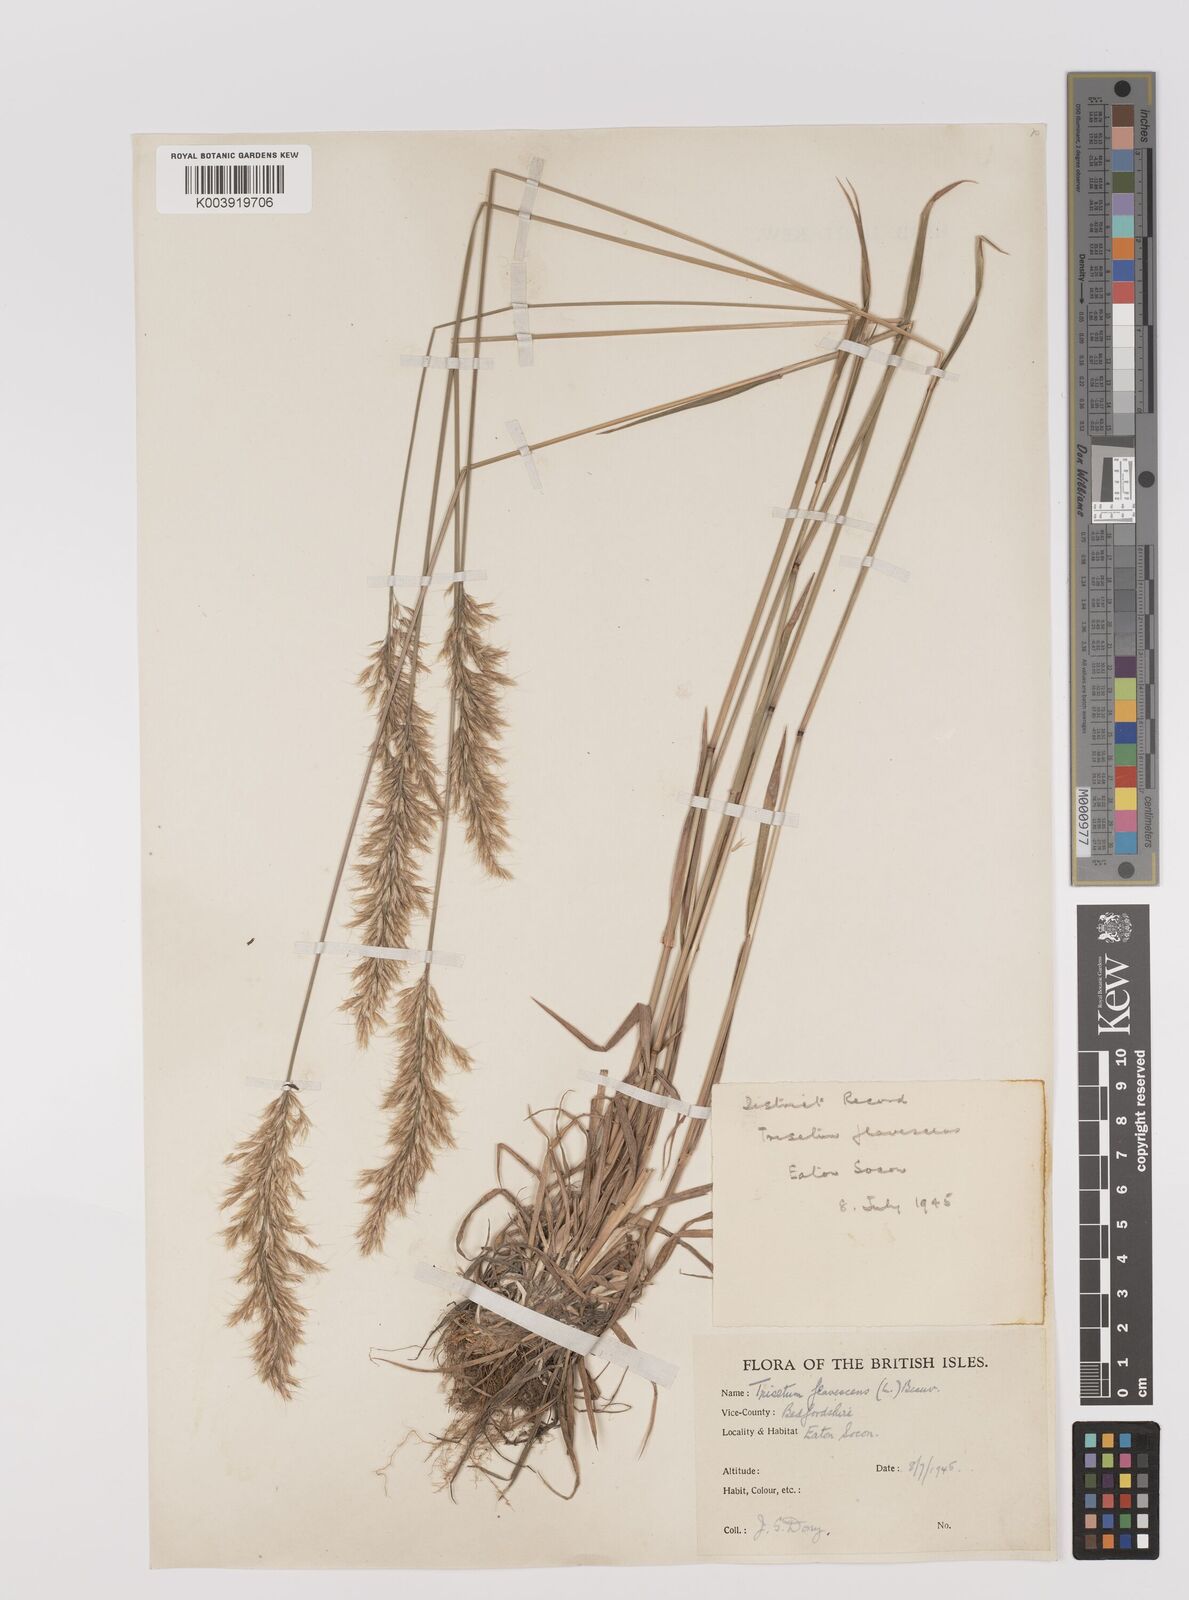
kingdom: Plantae
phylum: Tracheophyta
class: Liliopsida
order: Poales
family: Poaceae
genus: Trisetum
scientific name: Trisetum flavescens
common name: Yellow oat-grass
